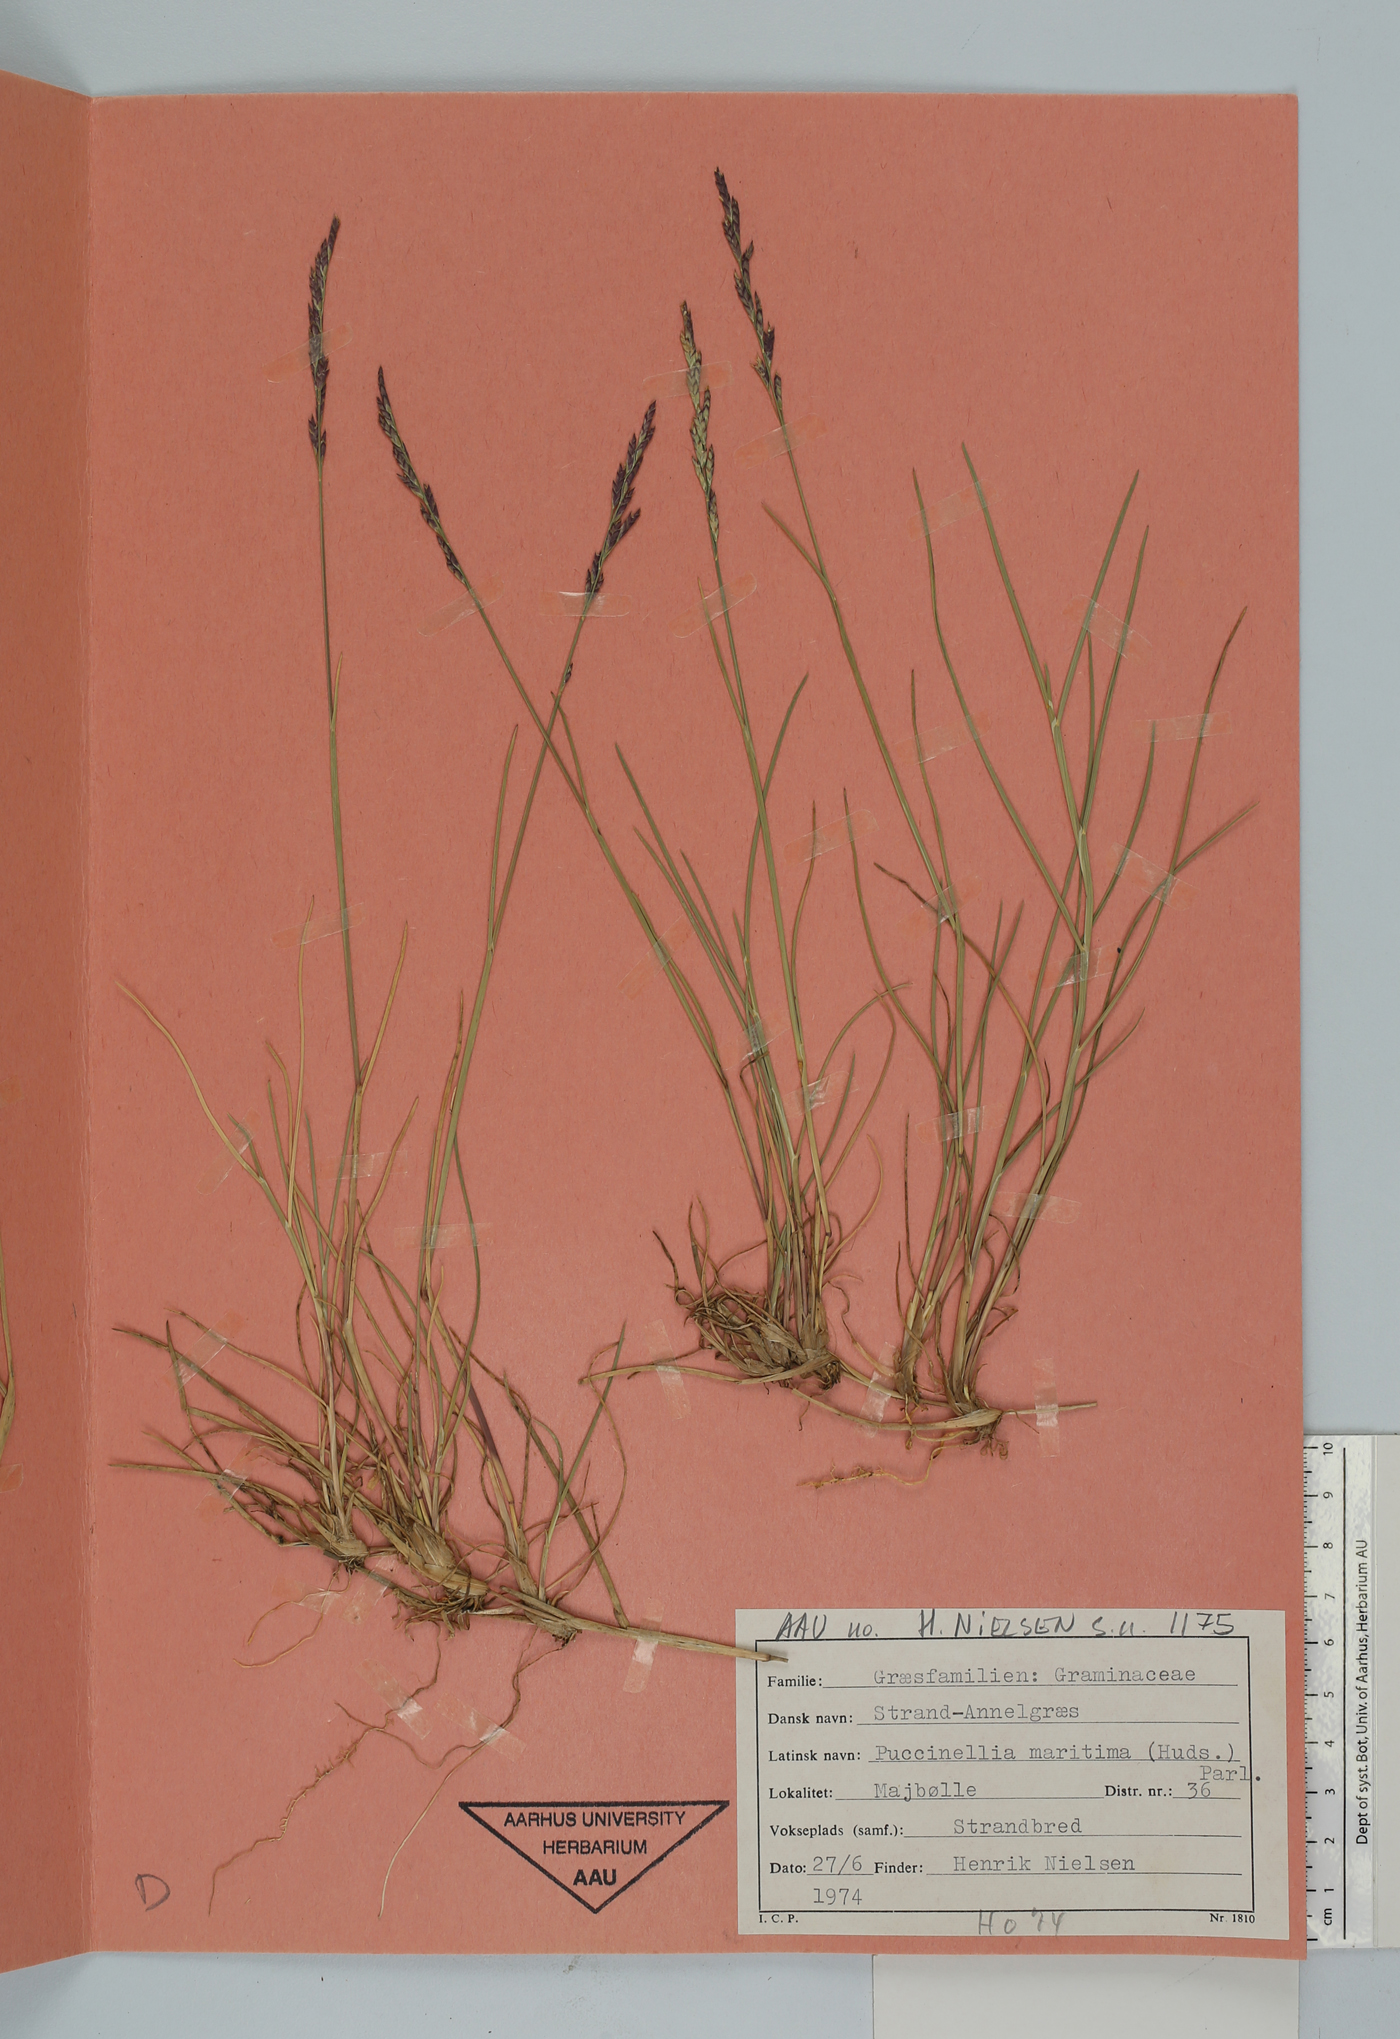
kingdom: Plantae
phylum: Tracheophyta
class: Liliopsida
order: Poales
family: Poaceae
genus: Puccinellia
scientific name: Puccinellia maritima
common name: Common saltmarsh grass
